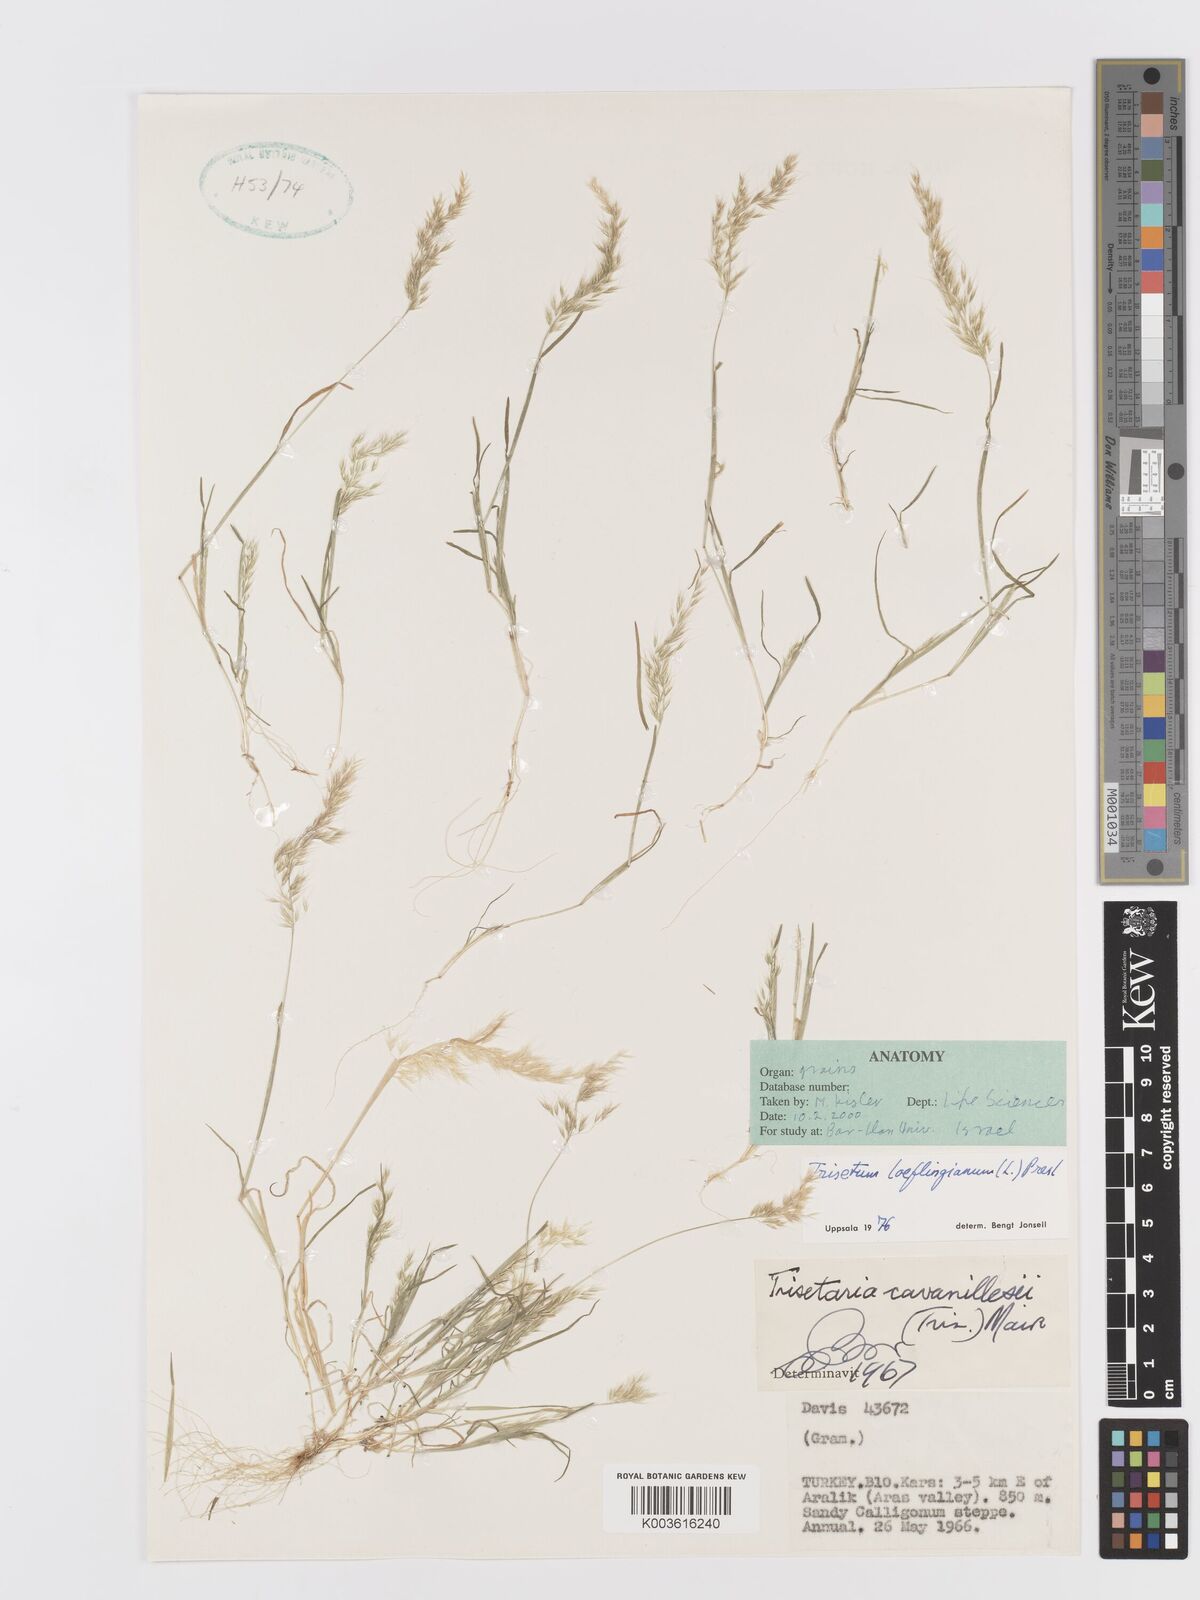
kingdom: Plantae
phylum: Tracheophyta
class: Liliopsida
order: Poales
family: Poaceae
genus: Trisetaria
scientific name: Trisetaria loeflingiana
